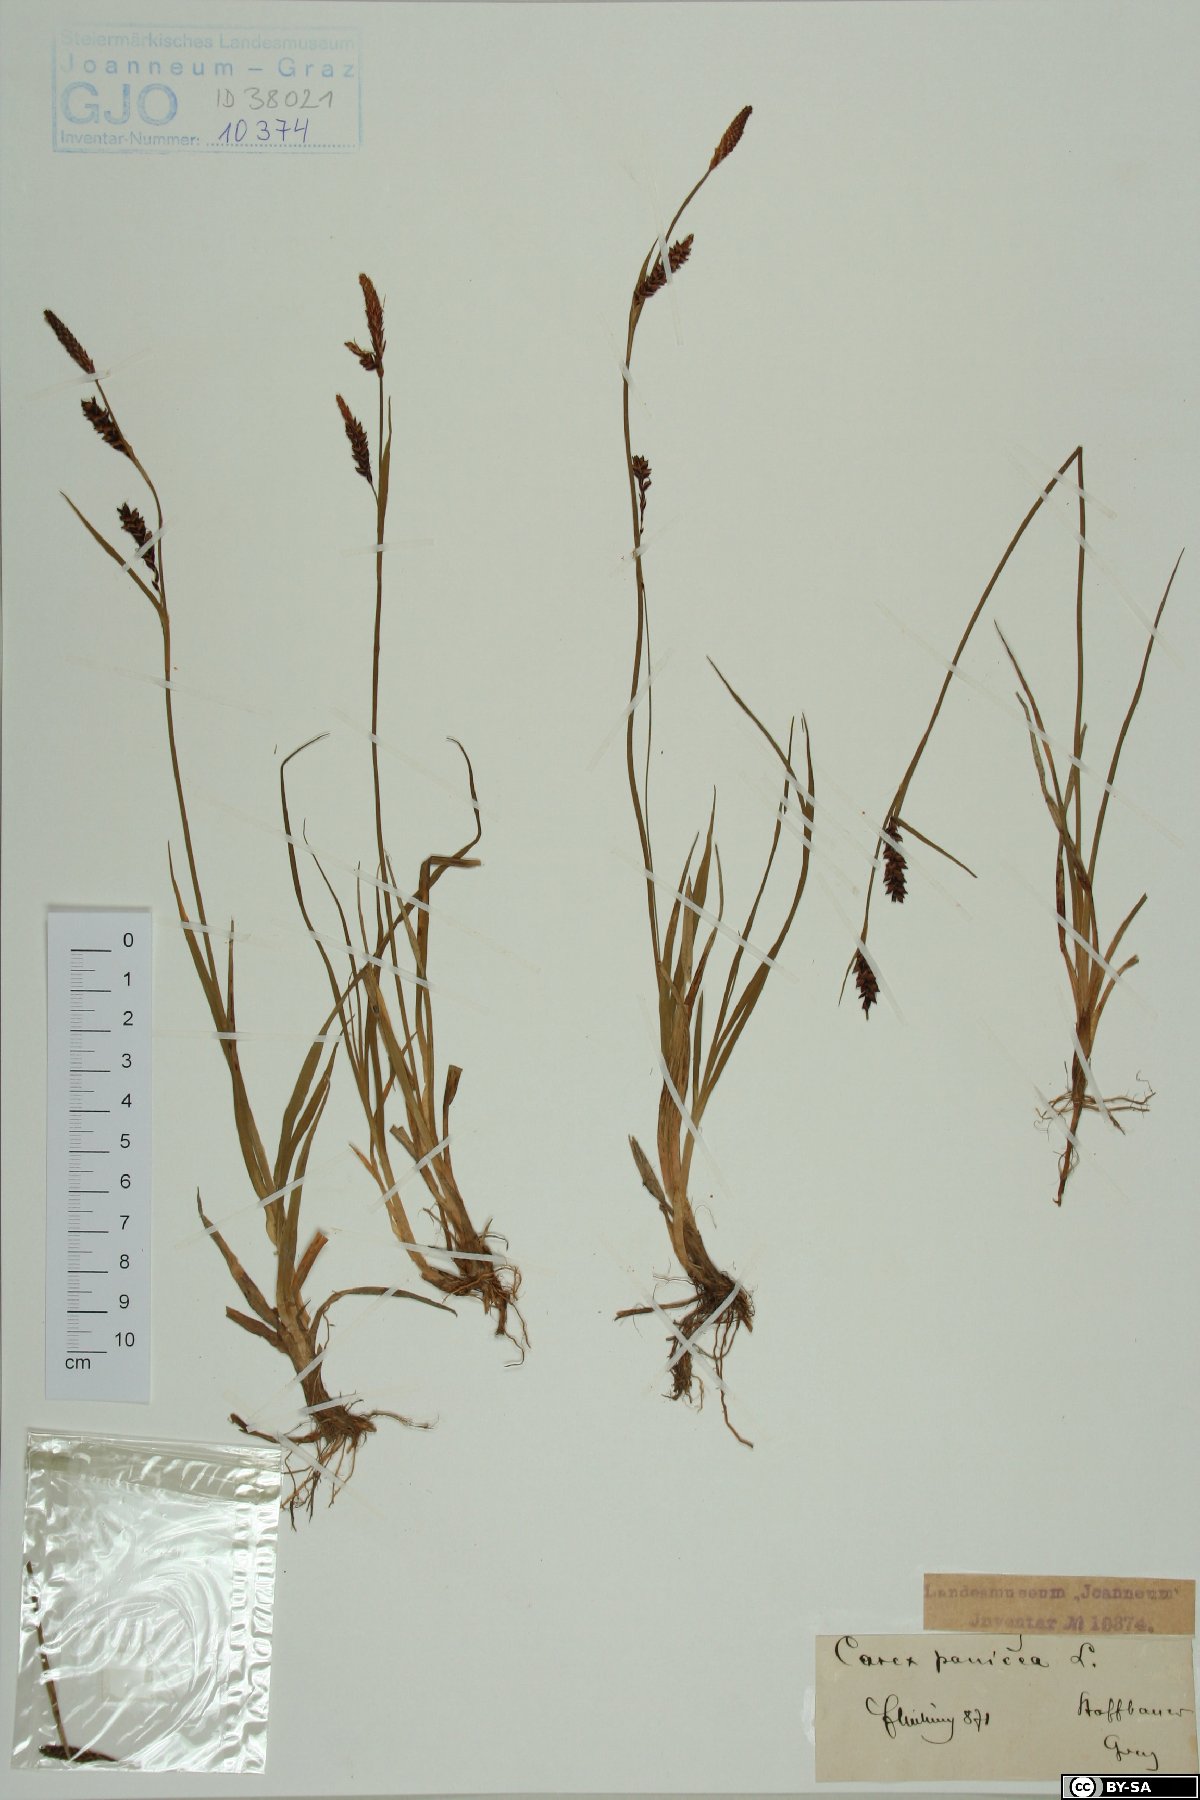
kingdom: Plantae
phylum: Tracheophyta
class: Liliopsida
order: Poales
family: Cyperaceae
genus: Carex
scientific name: Carex panicea
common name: Carnation sedge
